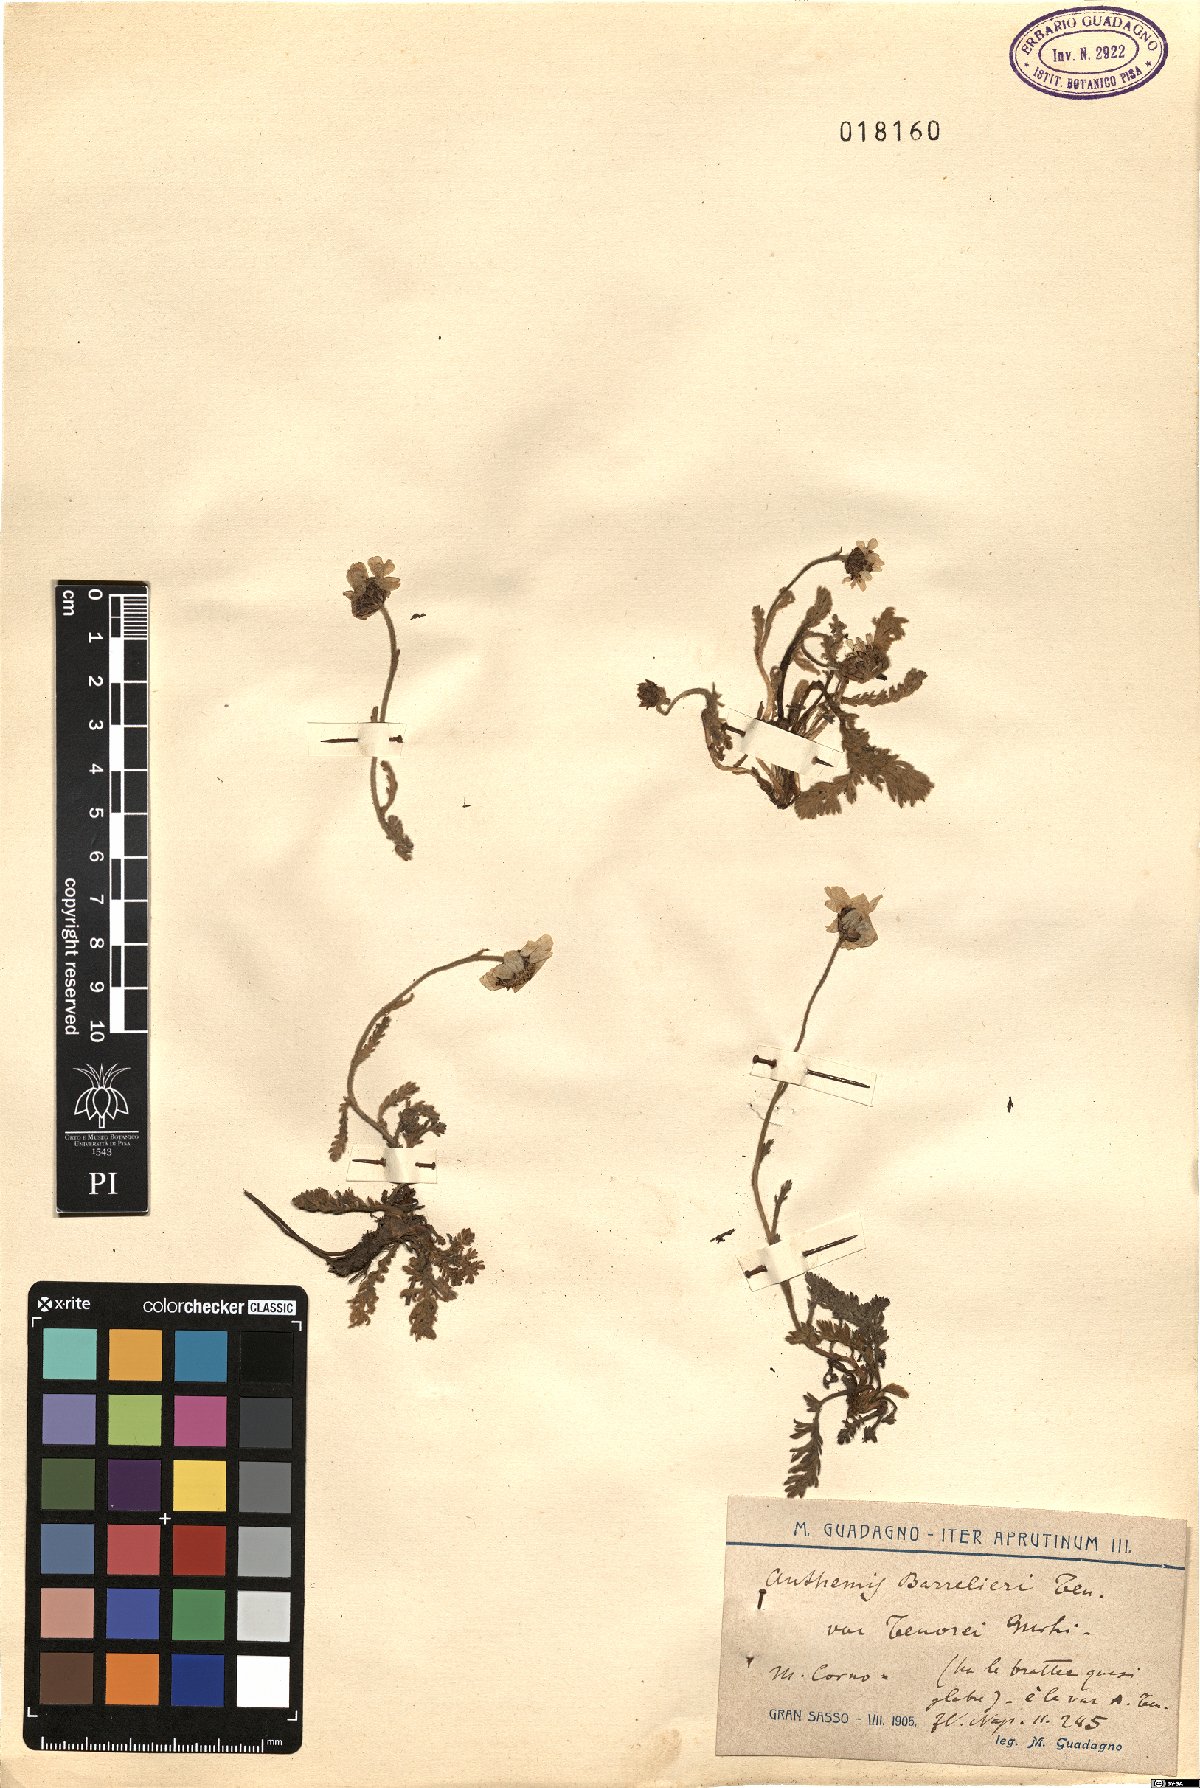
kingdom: Plantae
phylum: Tracheophyta
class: Magnoliopsida
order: Asterales
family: Asteraceae
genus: Achillea
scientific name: Achillea barrelieri
